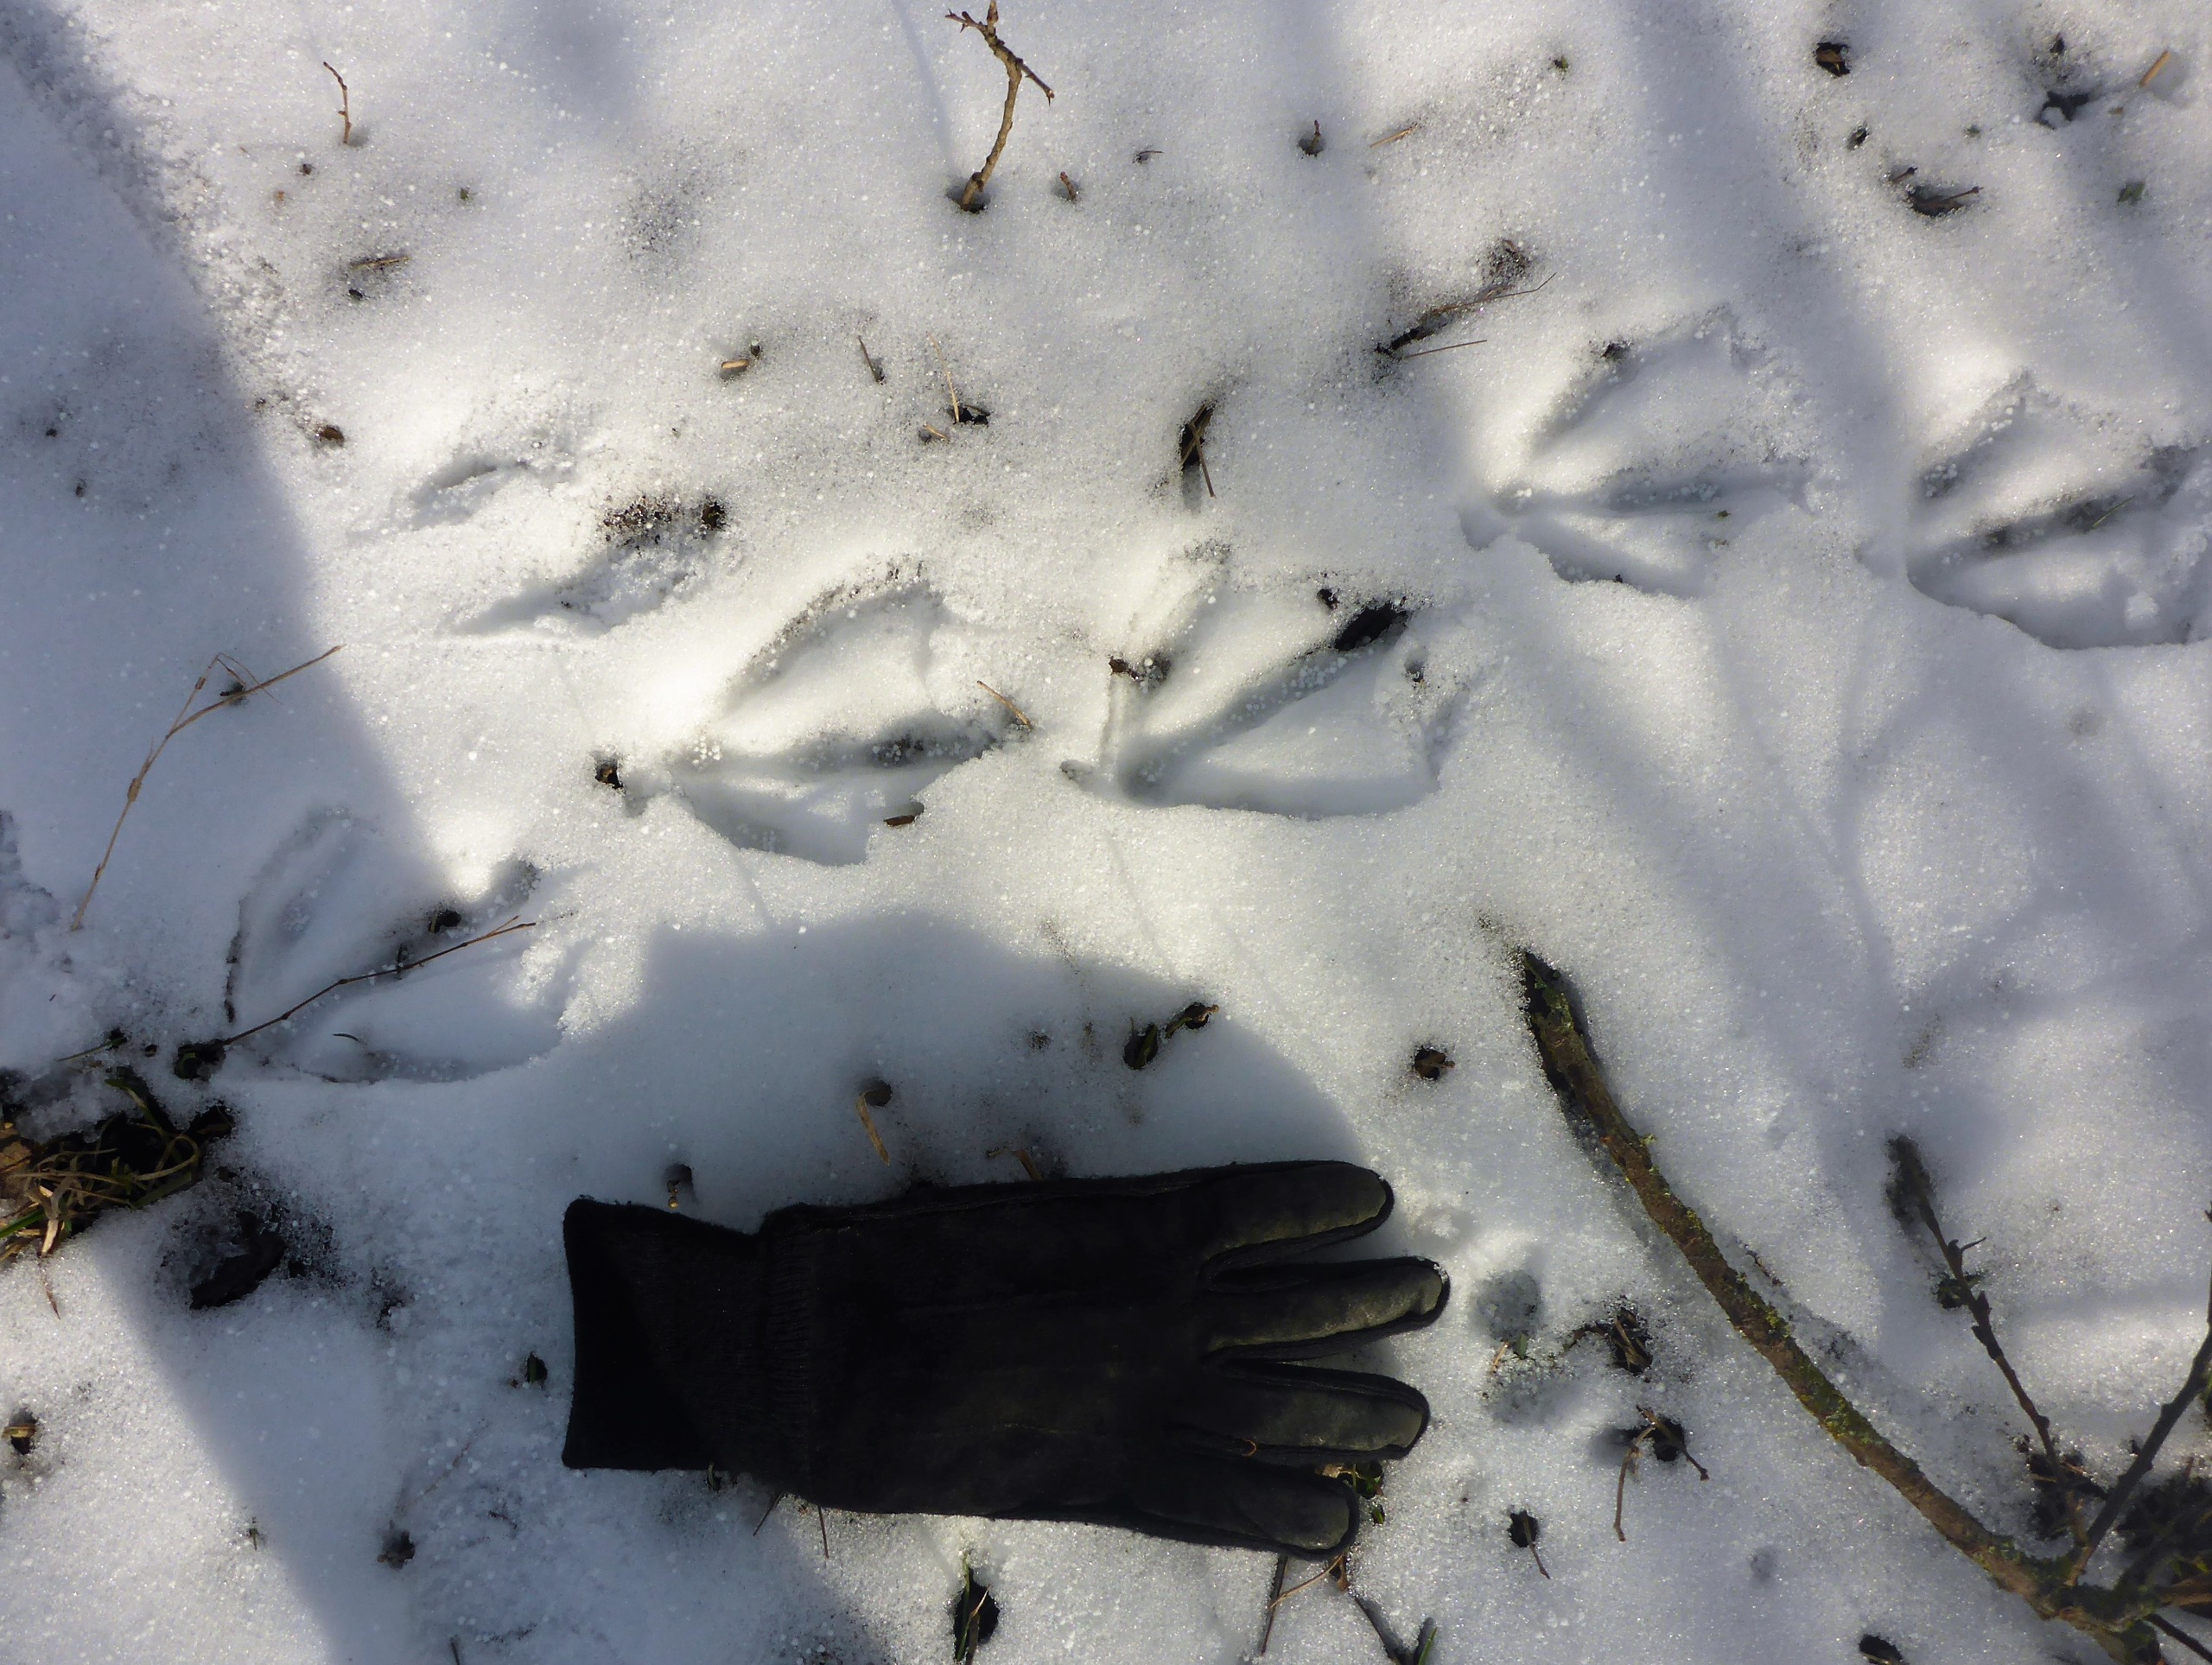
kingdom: Animalia
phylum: Chordata
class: Aves
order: Anseriformes
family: Anatidae
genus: Anser
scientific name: Anser anser
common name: Grågås
